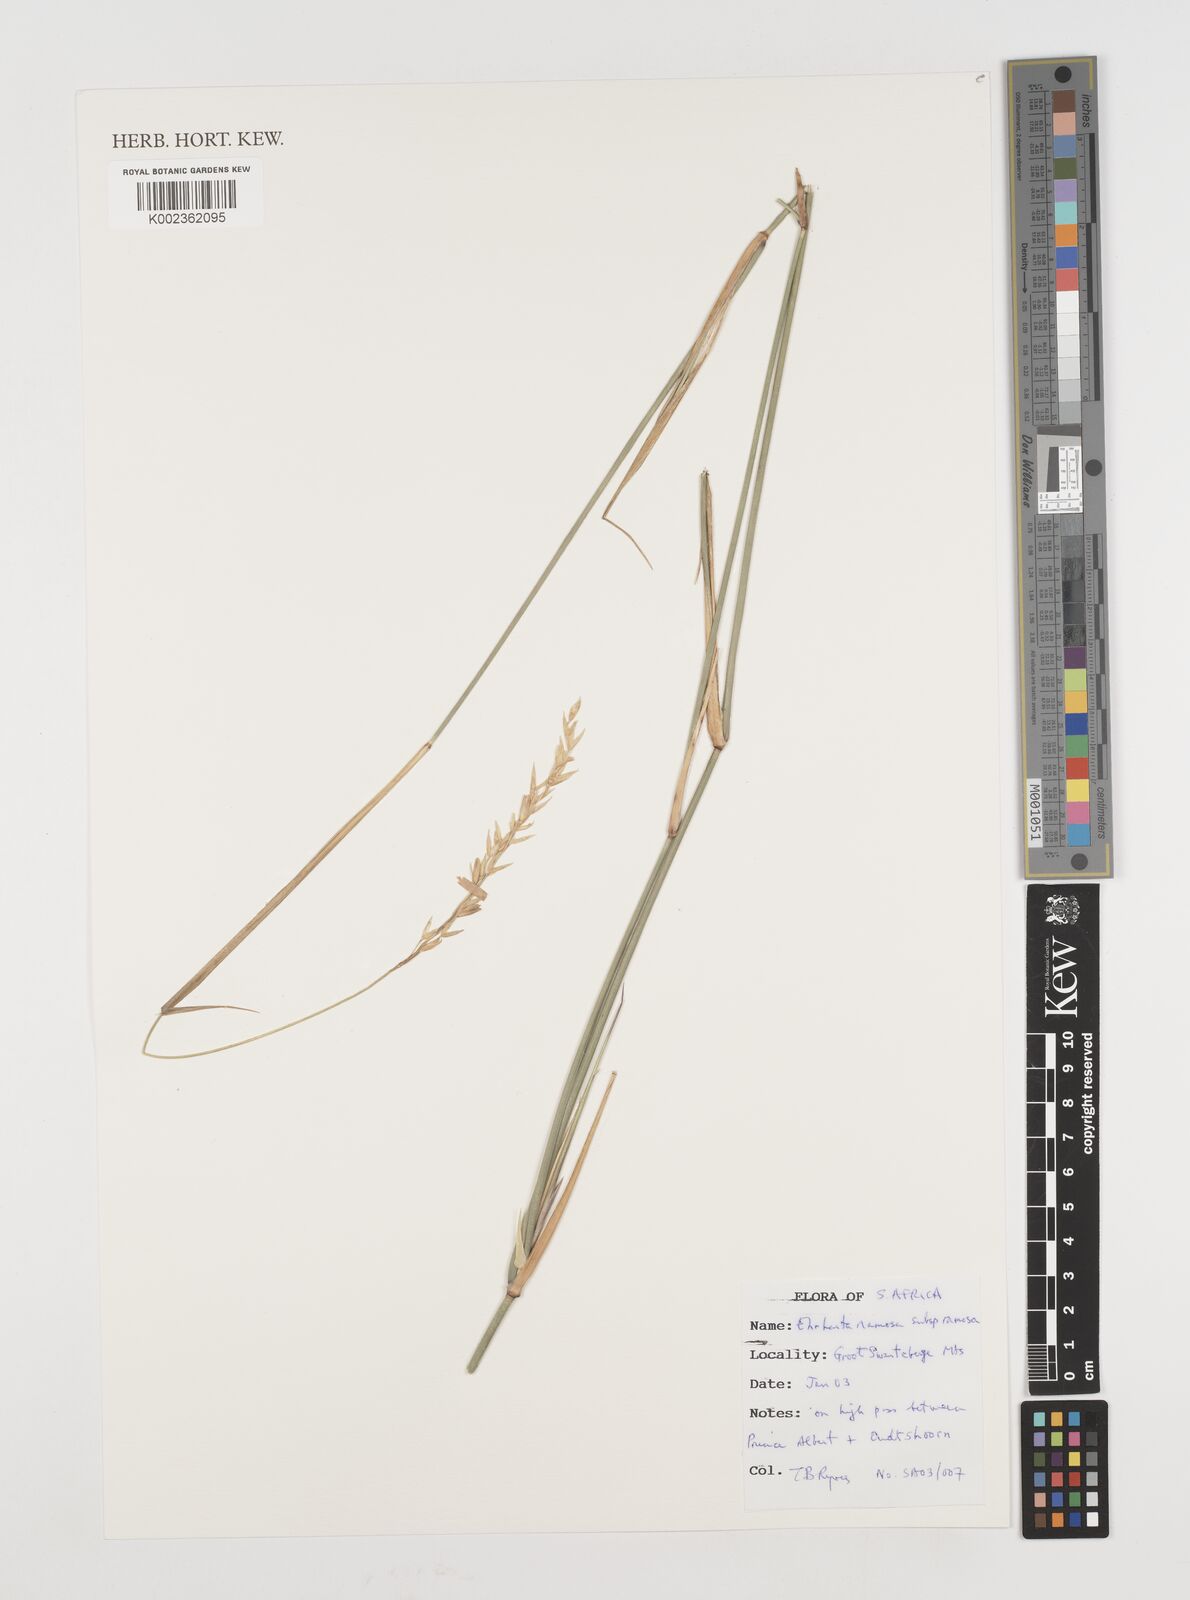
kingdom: Plantae
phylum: Tracheophyta
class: Liliopsida
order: Poales
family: Poaceae
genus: Ehrharta
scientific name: Ehrharta digyna
